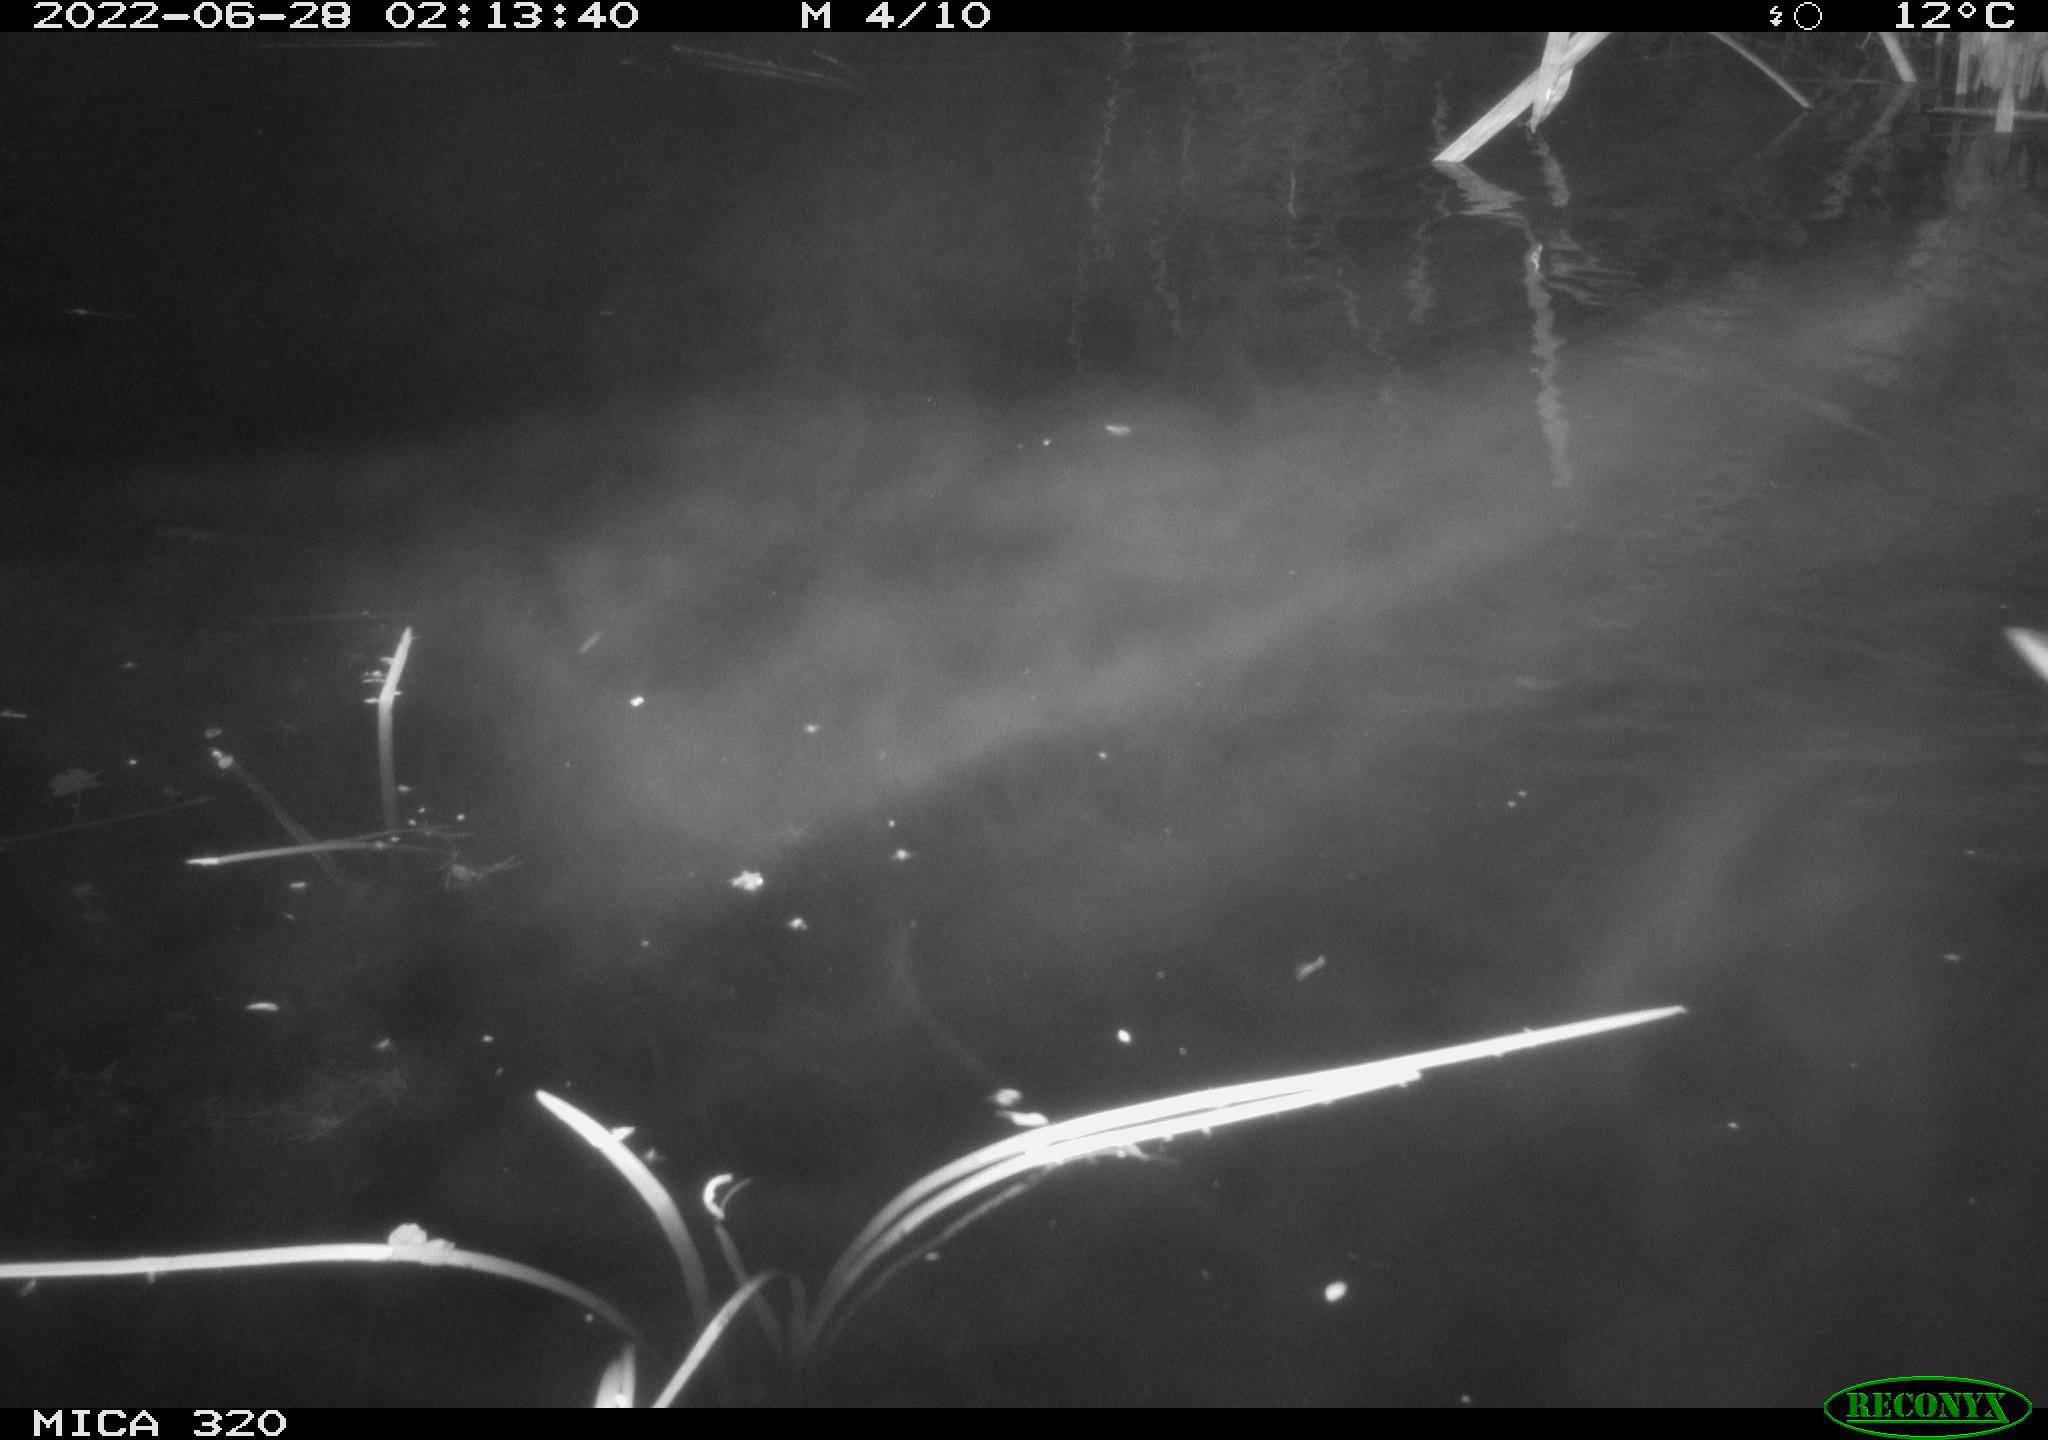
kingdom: Animalia
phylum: Chordata
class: Aves
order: Anseriformes
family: Anatidae
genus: Anas
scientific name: Anas platyrhynchos
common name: Mallard
